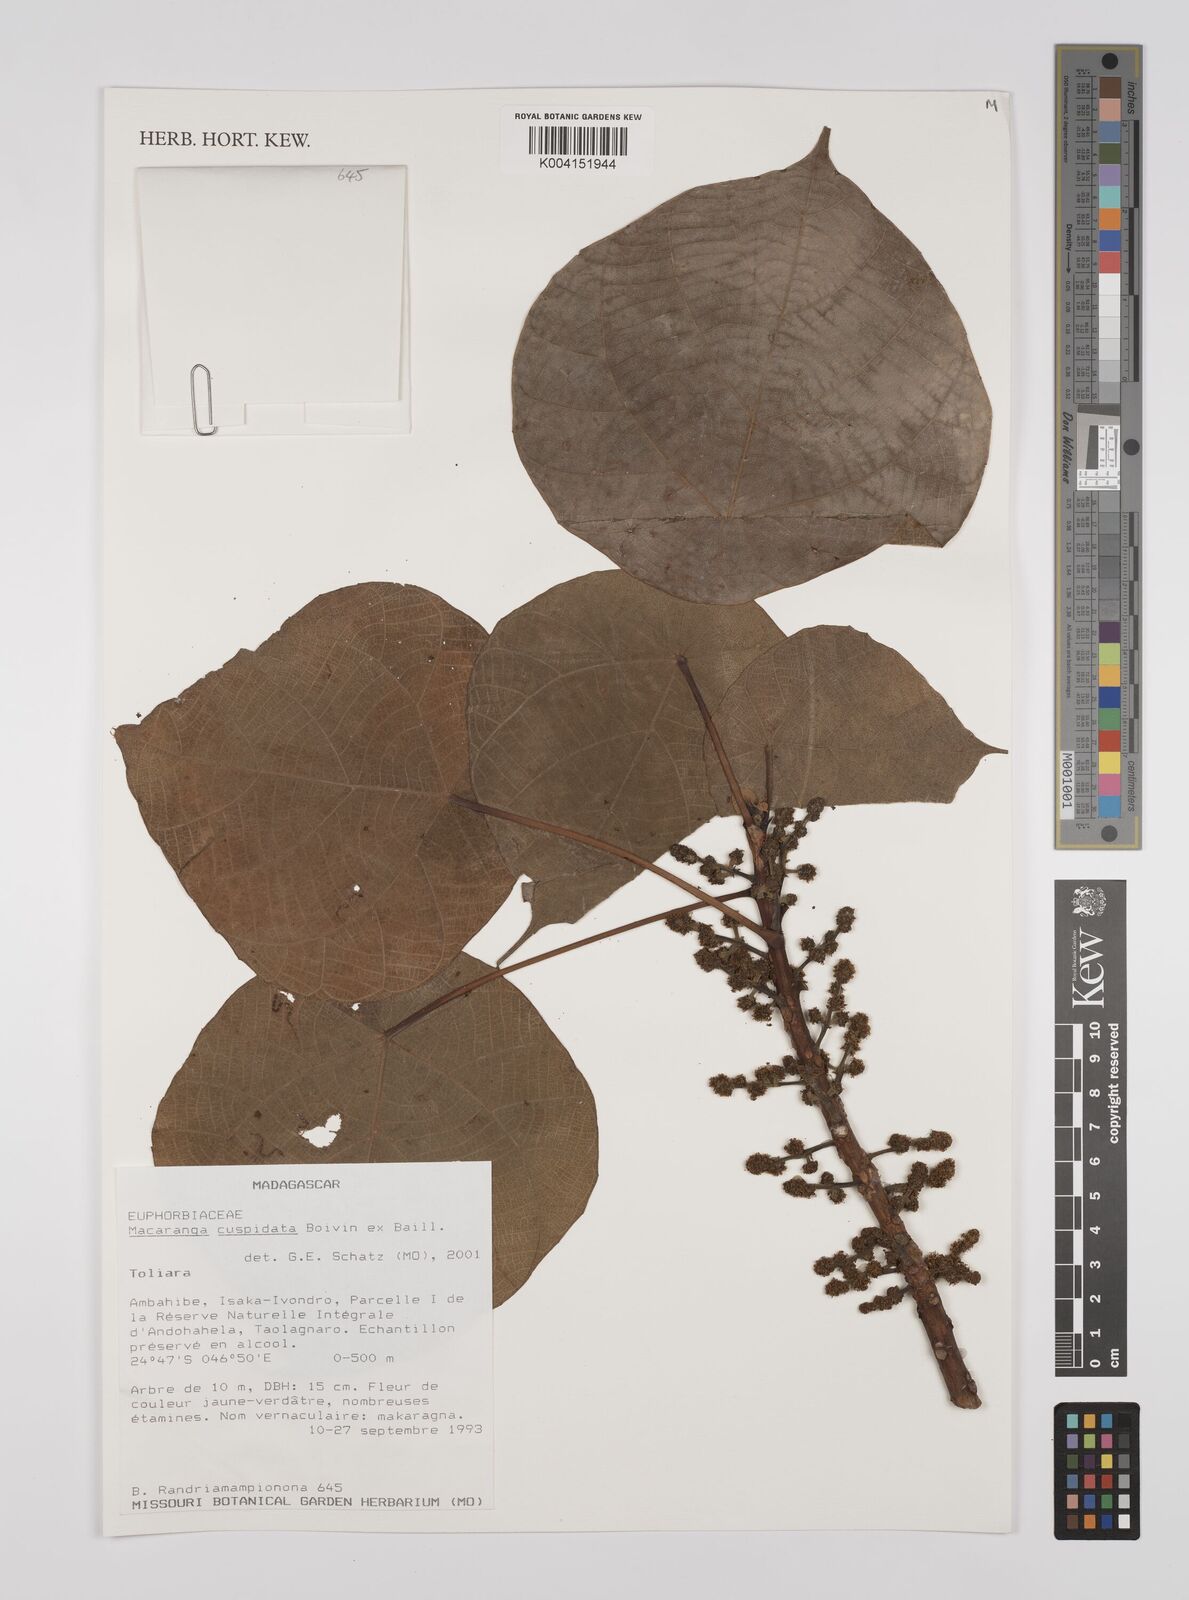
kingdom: Plantae
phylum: Tracheophyta
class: Magnoliopsida
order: Malpighiales
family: Euphorbiaceae
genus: Macaranga
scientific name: Macaranga cuspidata
